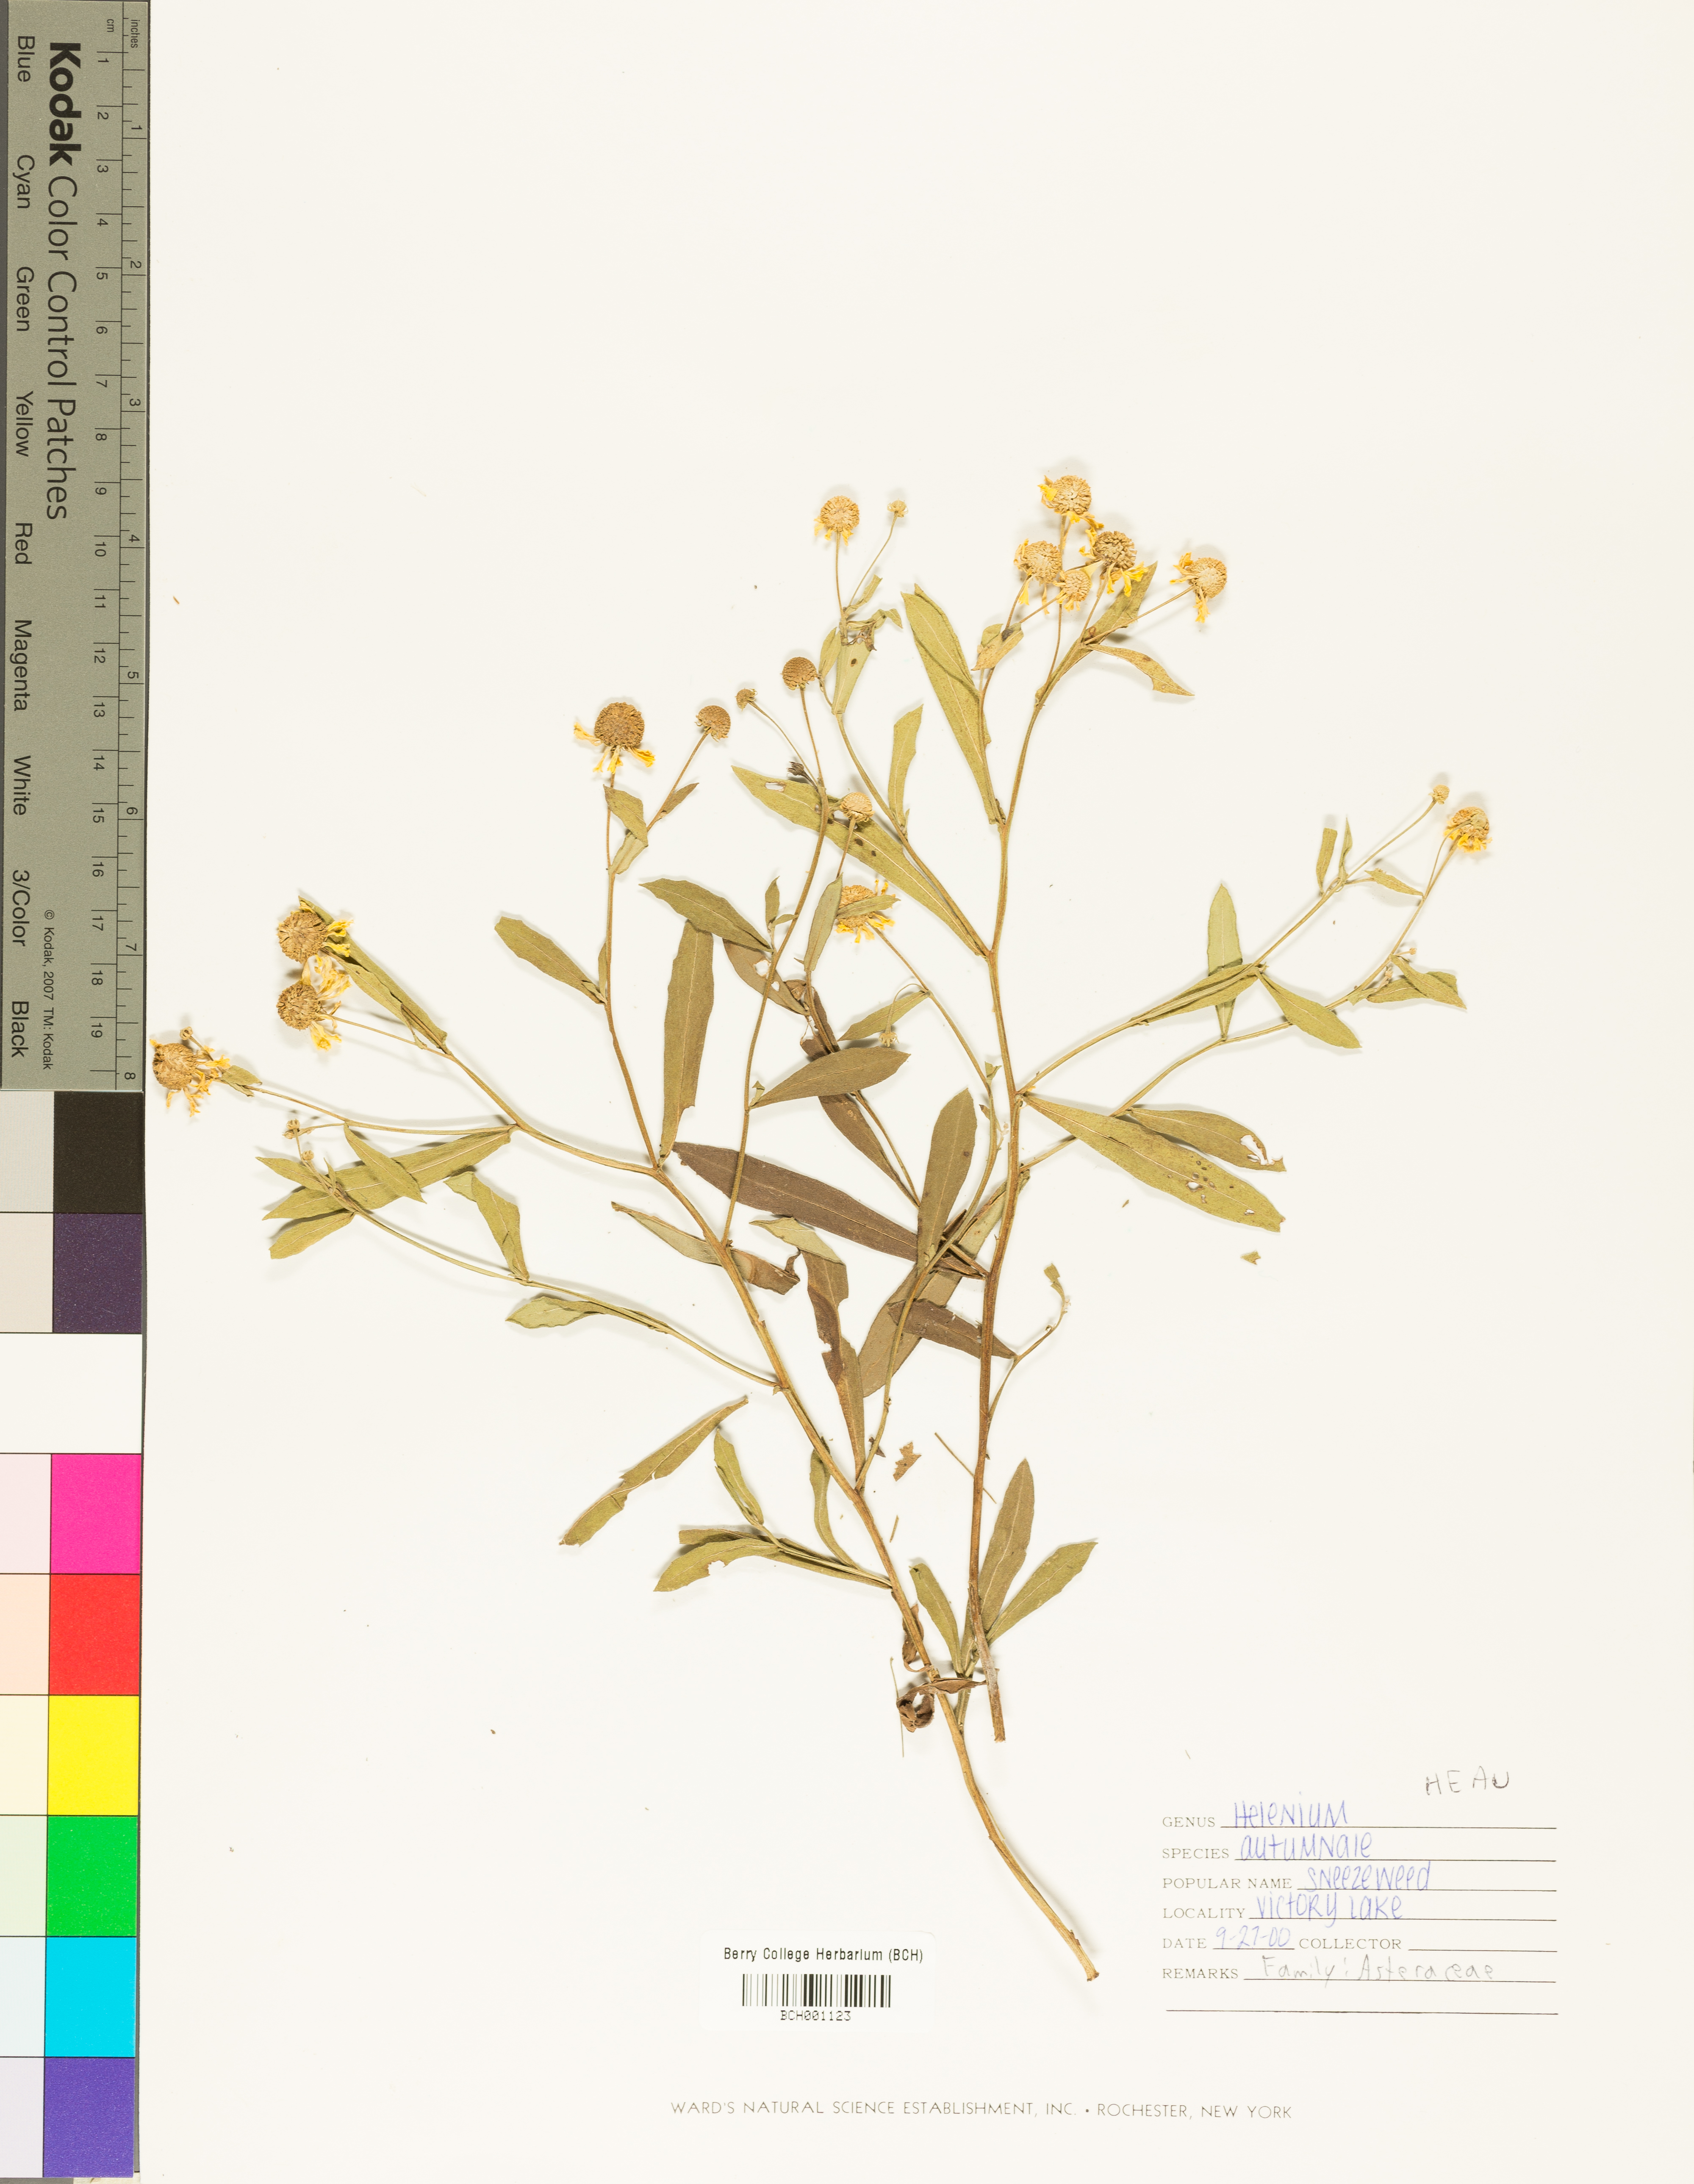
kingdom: Plantae
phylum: Tracheophyta
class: Magnoliopsida
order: Asterales
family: Asteraceae
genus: Helenium
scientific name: Helenium autumnale
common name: Sneezeweed
